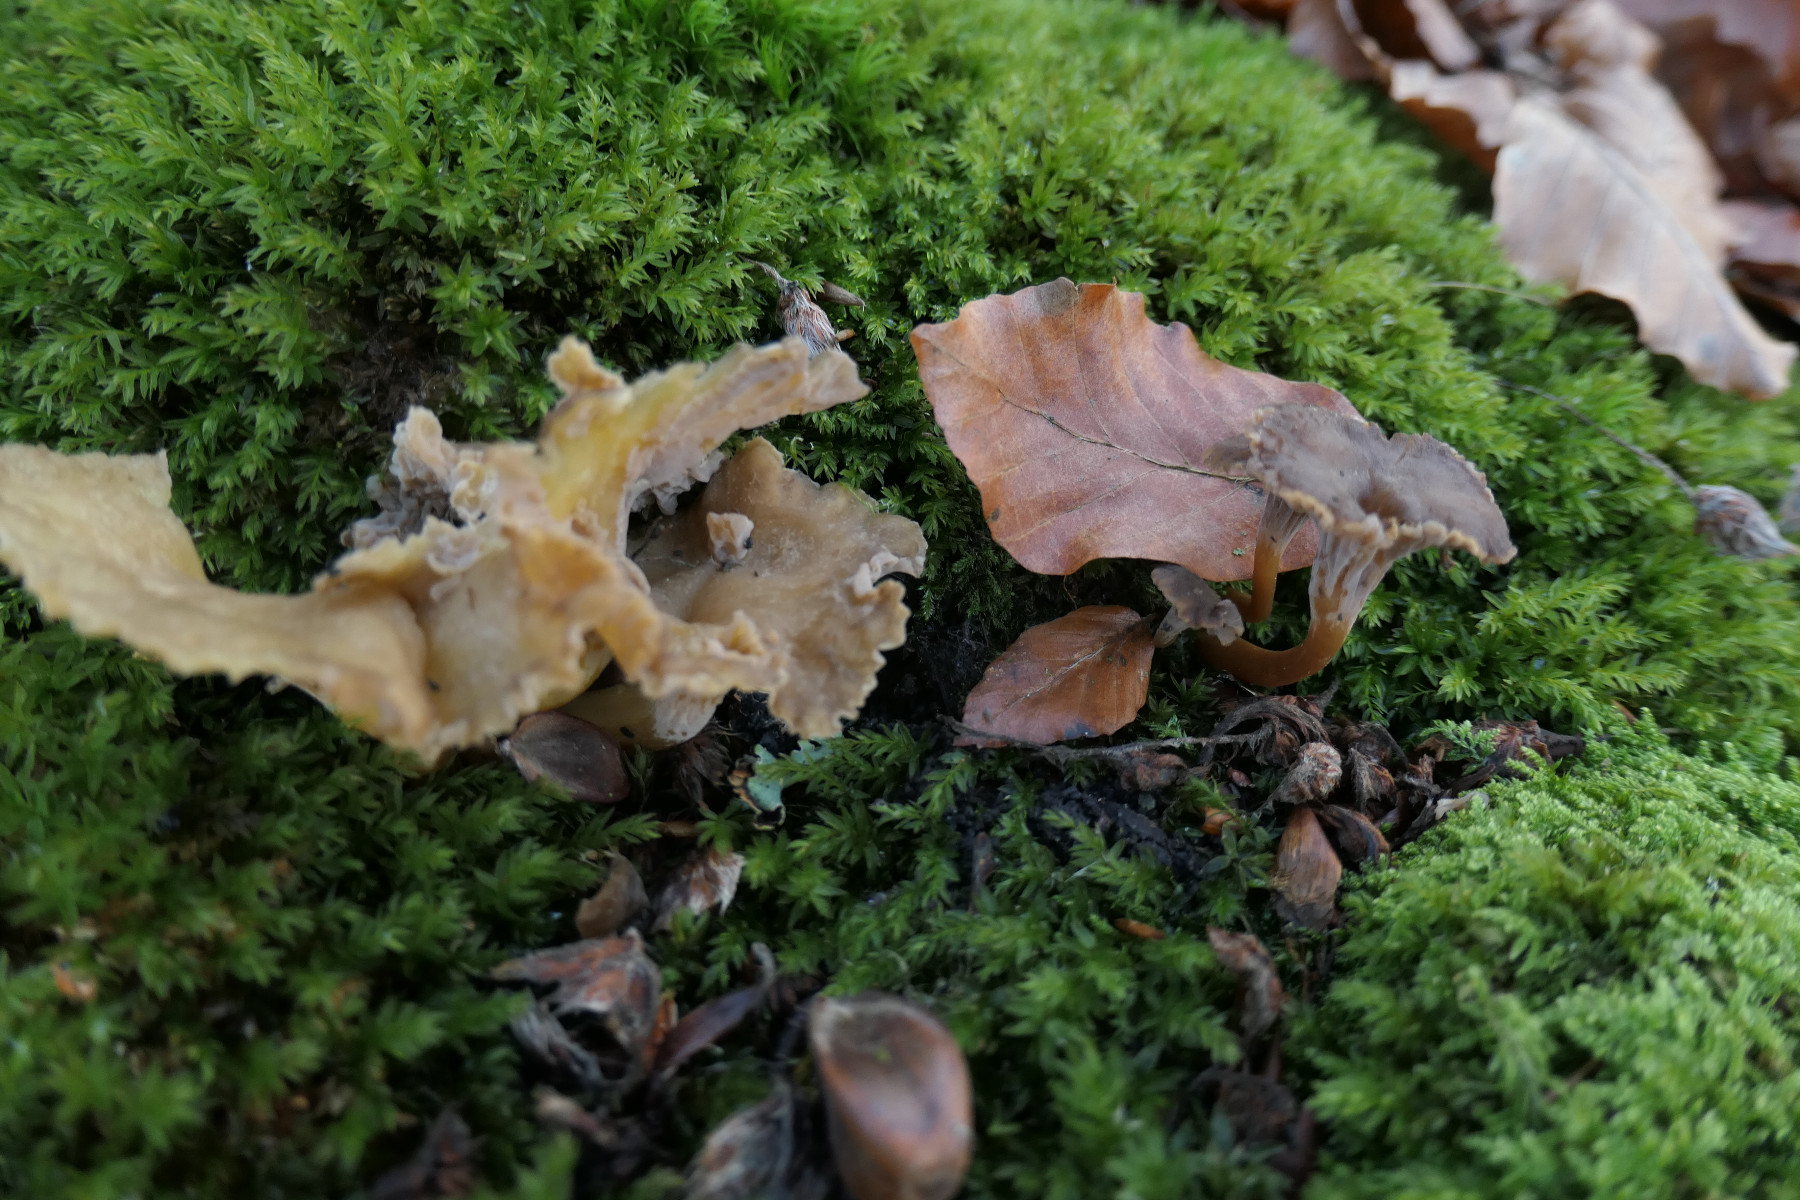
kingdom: Fungi
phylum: Basidiomycota
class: Agaricomycetes
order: Cantharellales
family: Hydnaceae
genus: Craterellus
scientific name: Craterellus tubaeformis
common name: tragt-kantarel
